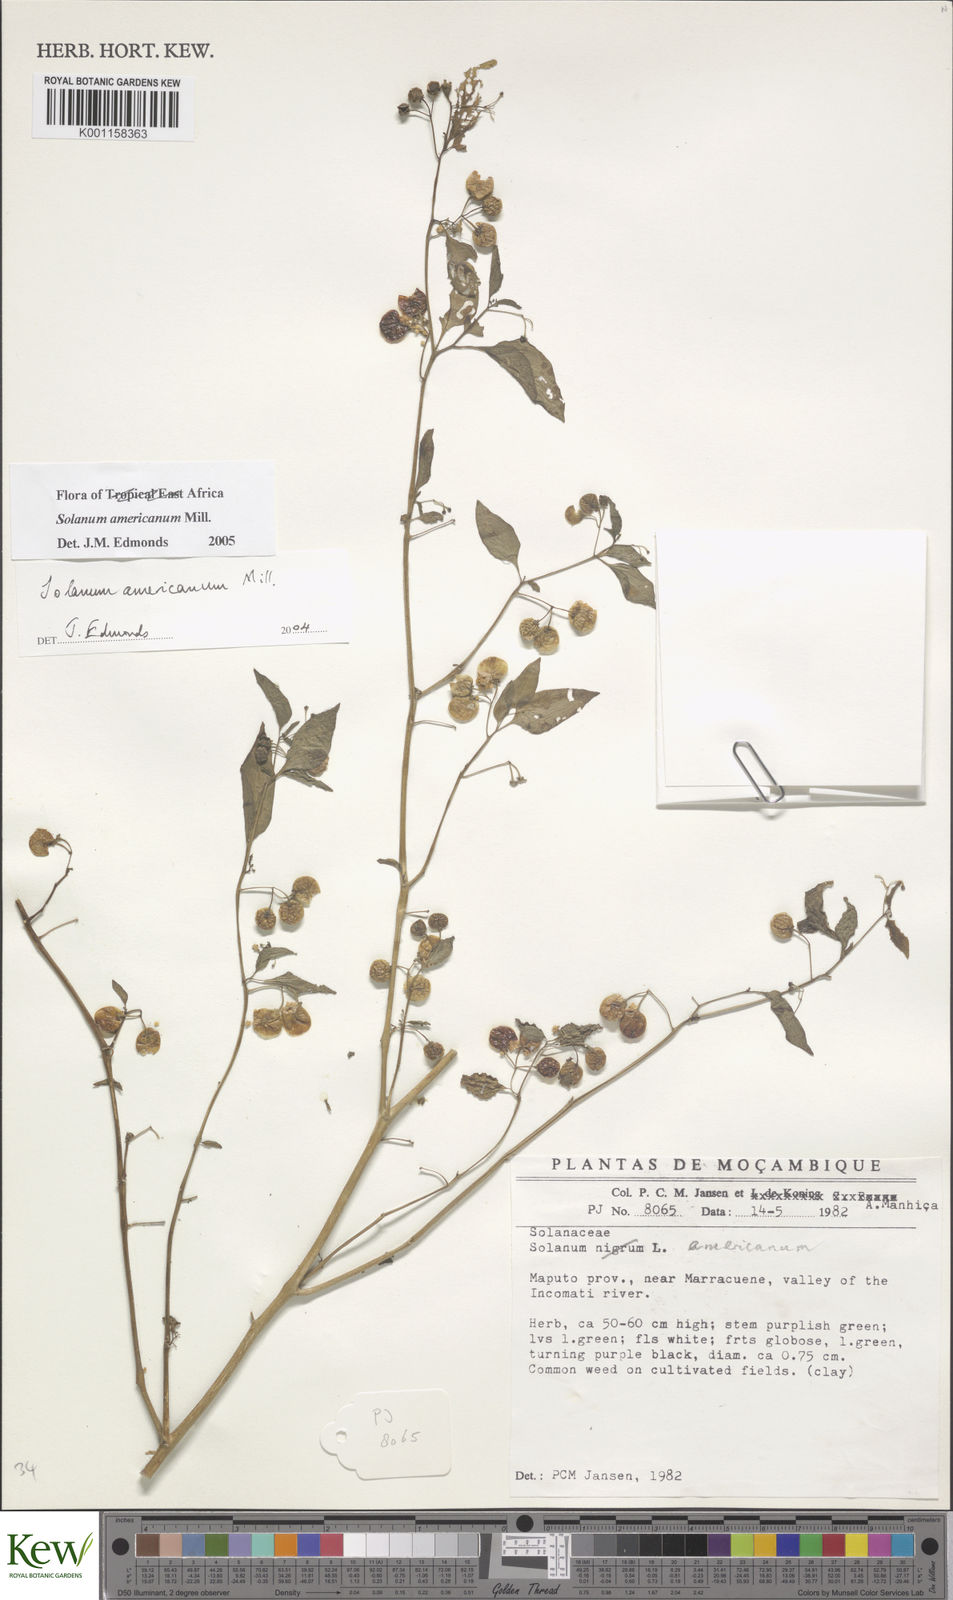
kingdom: Plantae
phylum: Tracheophyta
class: Magnoliopsida
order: Solanales
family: Solanaceae
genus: Solanum
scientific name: Solanum americanum
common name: American black nightshade
